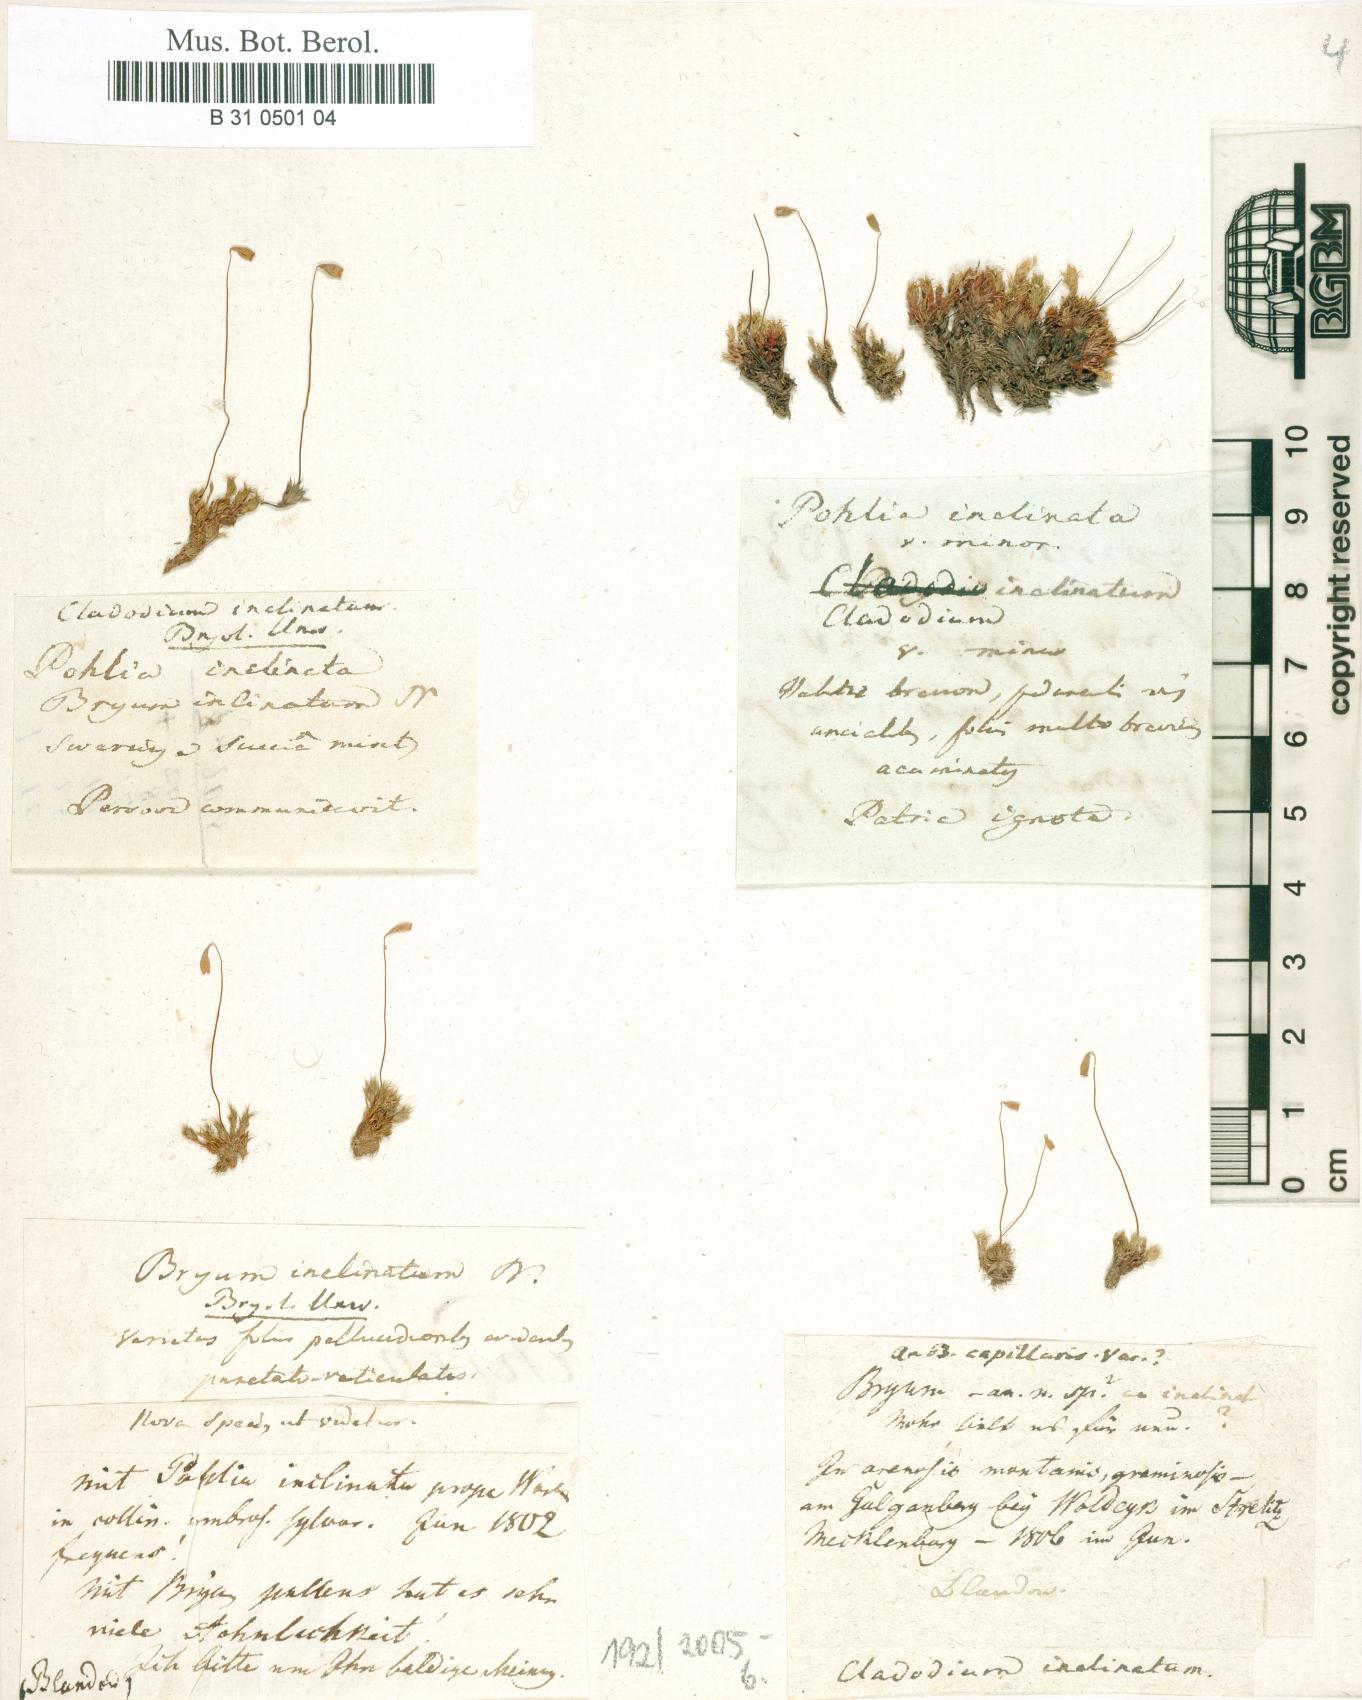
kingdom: Plantae
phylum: Bryophyta
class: Bryopsida
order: Bryales
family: Bryaceae
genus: Ptychostomum
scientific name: Ptychostomum inclinatum
